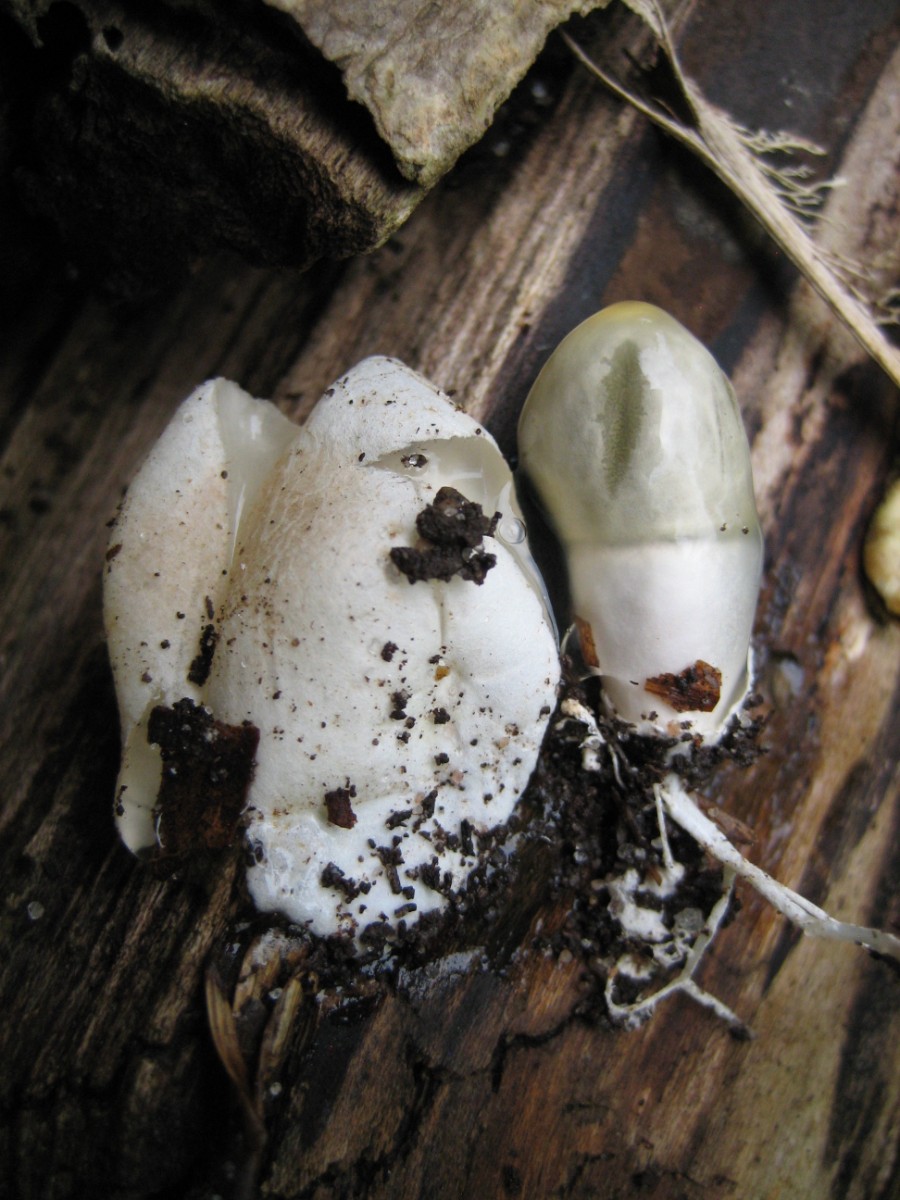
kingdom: Fungi
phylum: Basidiomycota
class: Agaricomycetes
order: Phallales
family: Phallaceae
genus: Mutinus
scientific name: Mutinus caninus
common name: hunde-stinksvamp
